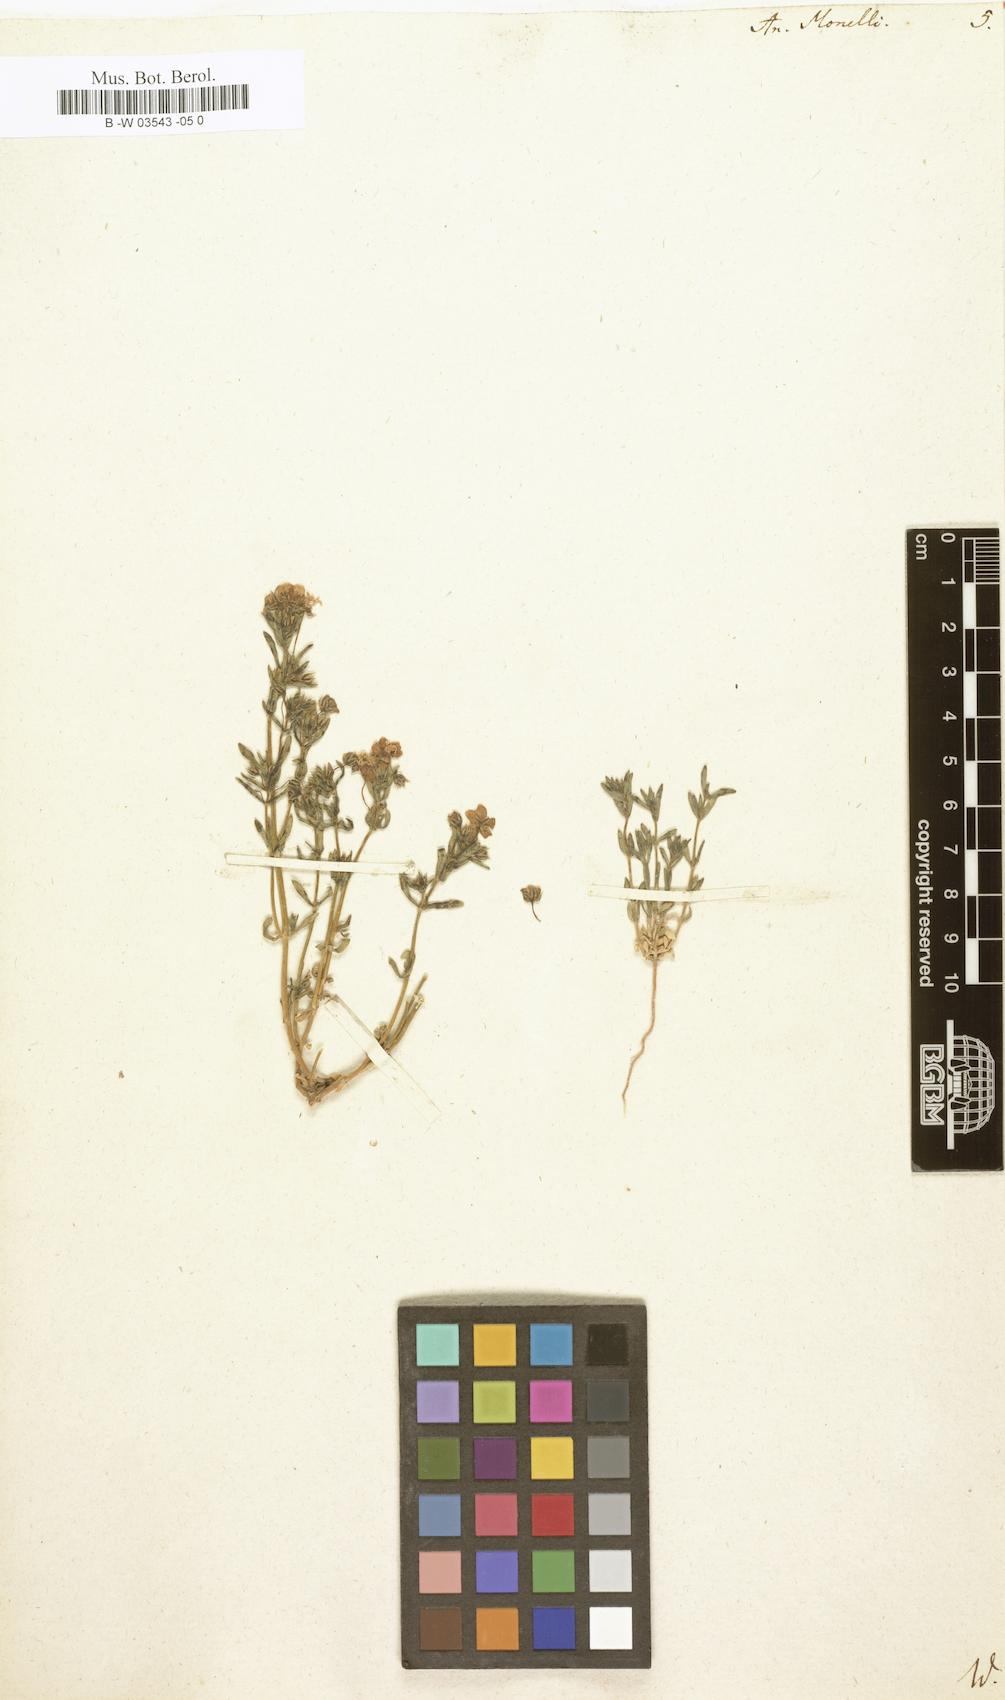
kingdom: Plantae
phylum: Tracheophyta
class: Magnoliopsida
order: Ericales
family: Primulaceae
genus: Lysimachia
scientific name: Lysimachia monelli
